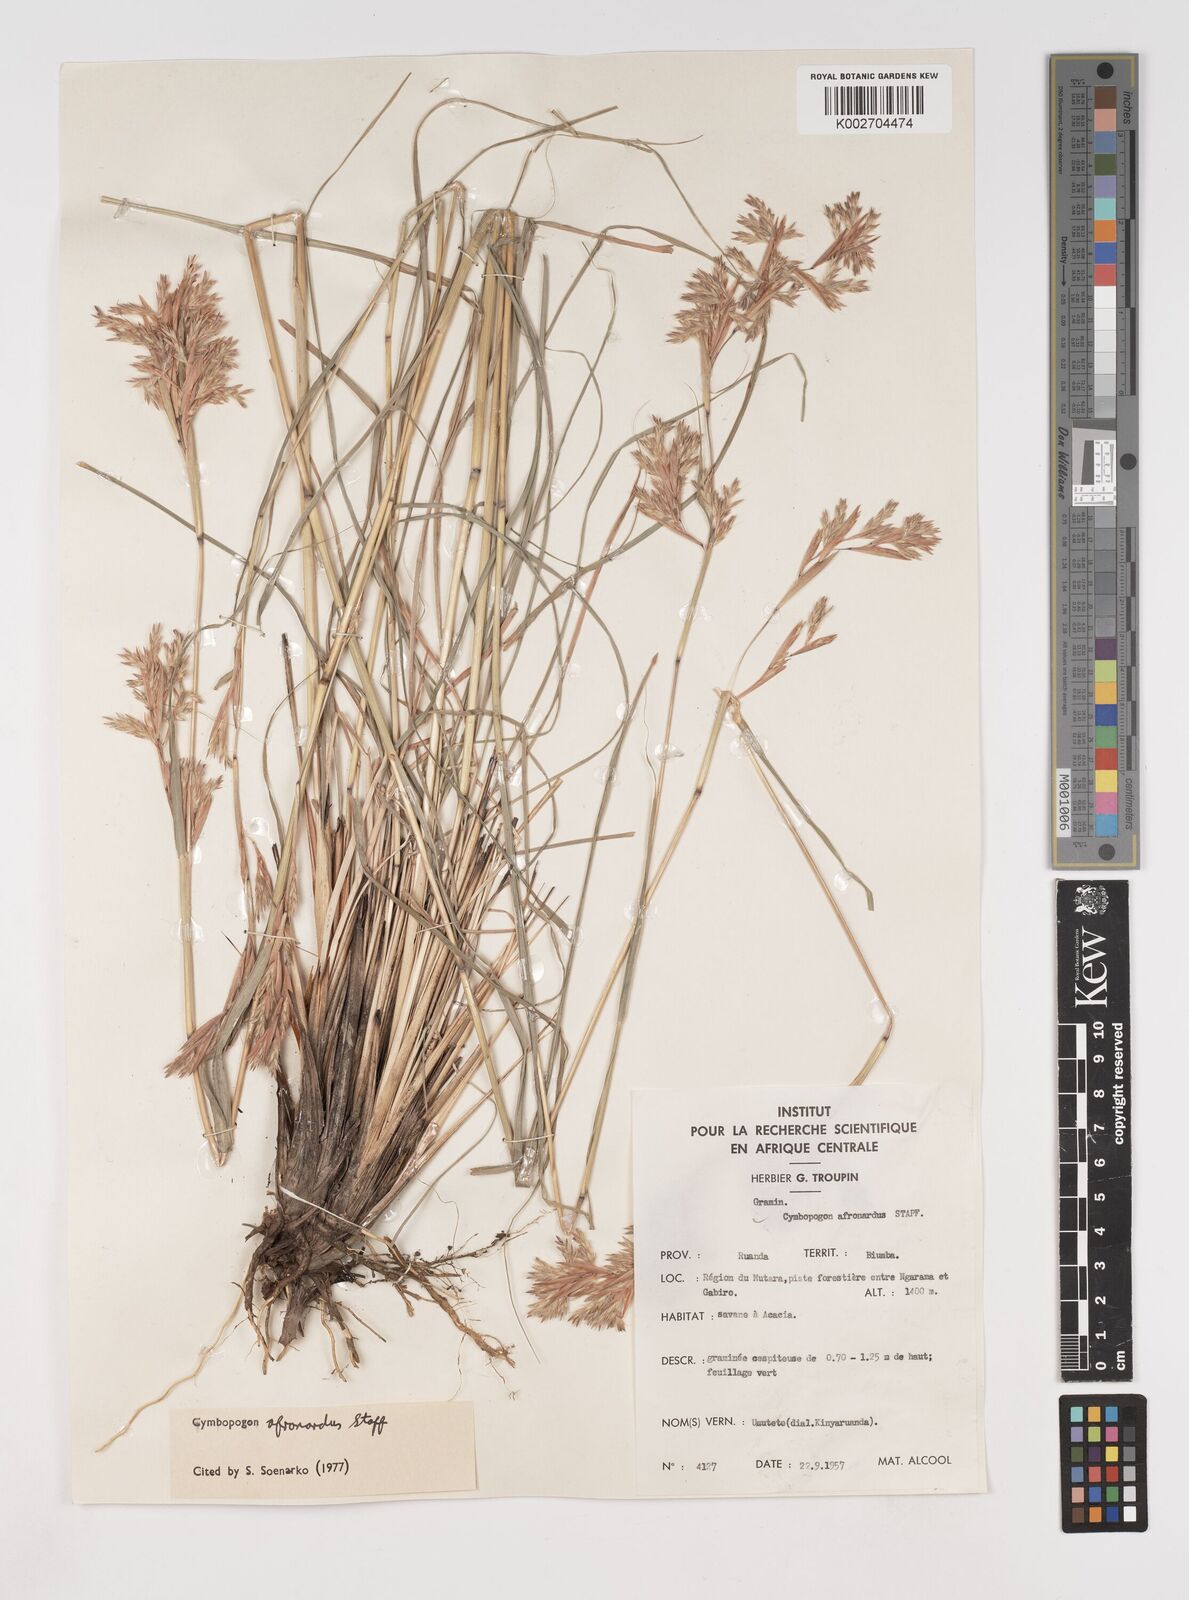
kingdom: Plantae
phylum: Tracheophyta
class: Liliopsida
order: Poales
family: Poaceae
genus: Cymbopogon
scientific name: Cymbopogon nardus
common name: Giant turpentine grass
